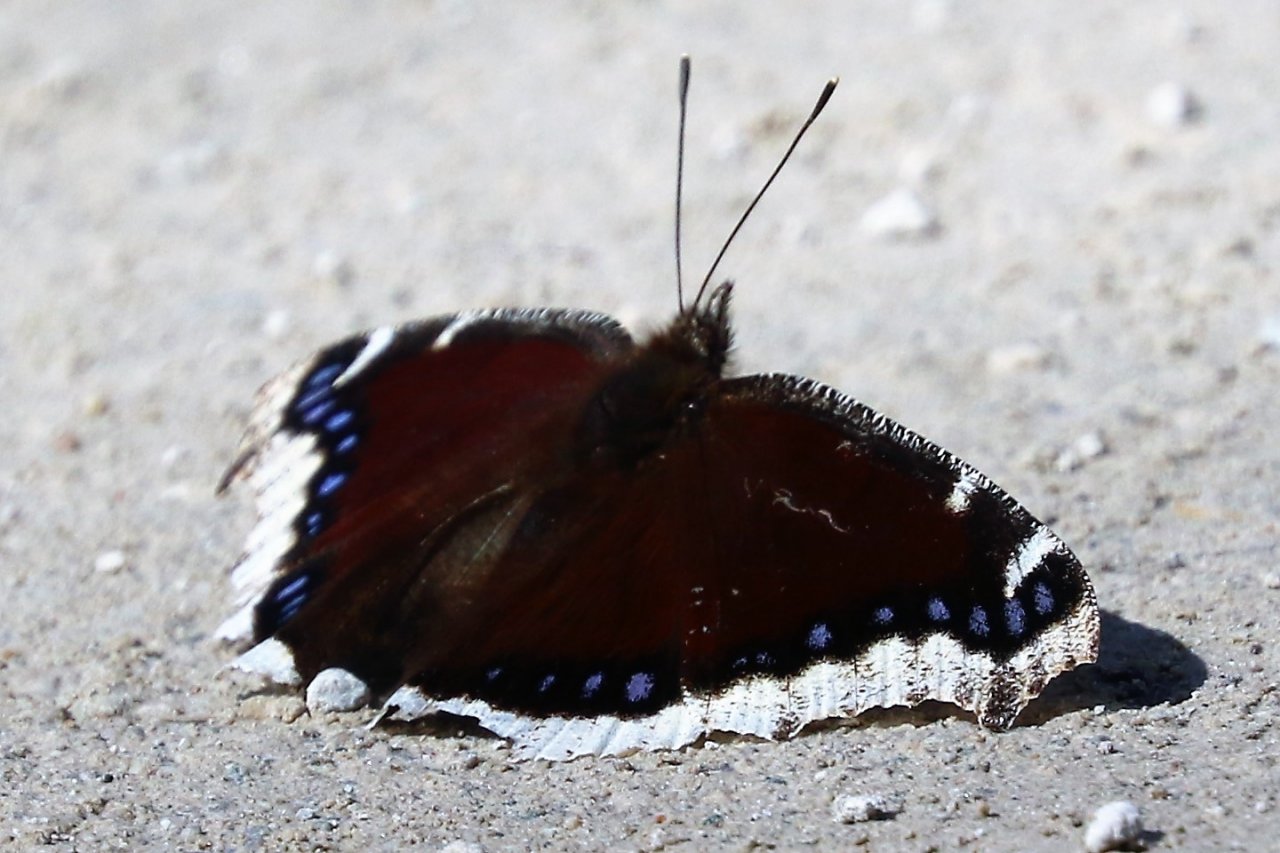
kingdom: Animalia
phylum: Arthropoda
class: Insecta
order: Lepidoptera
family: Nymphalidae
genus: Nymphalis
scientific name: Nymphalis antiopa
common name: Mourning Cloak
